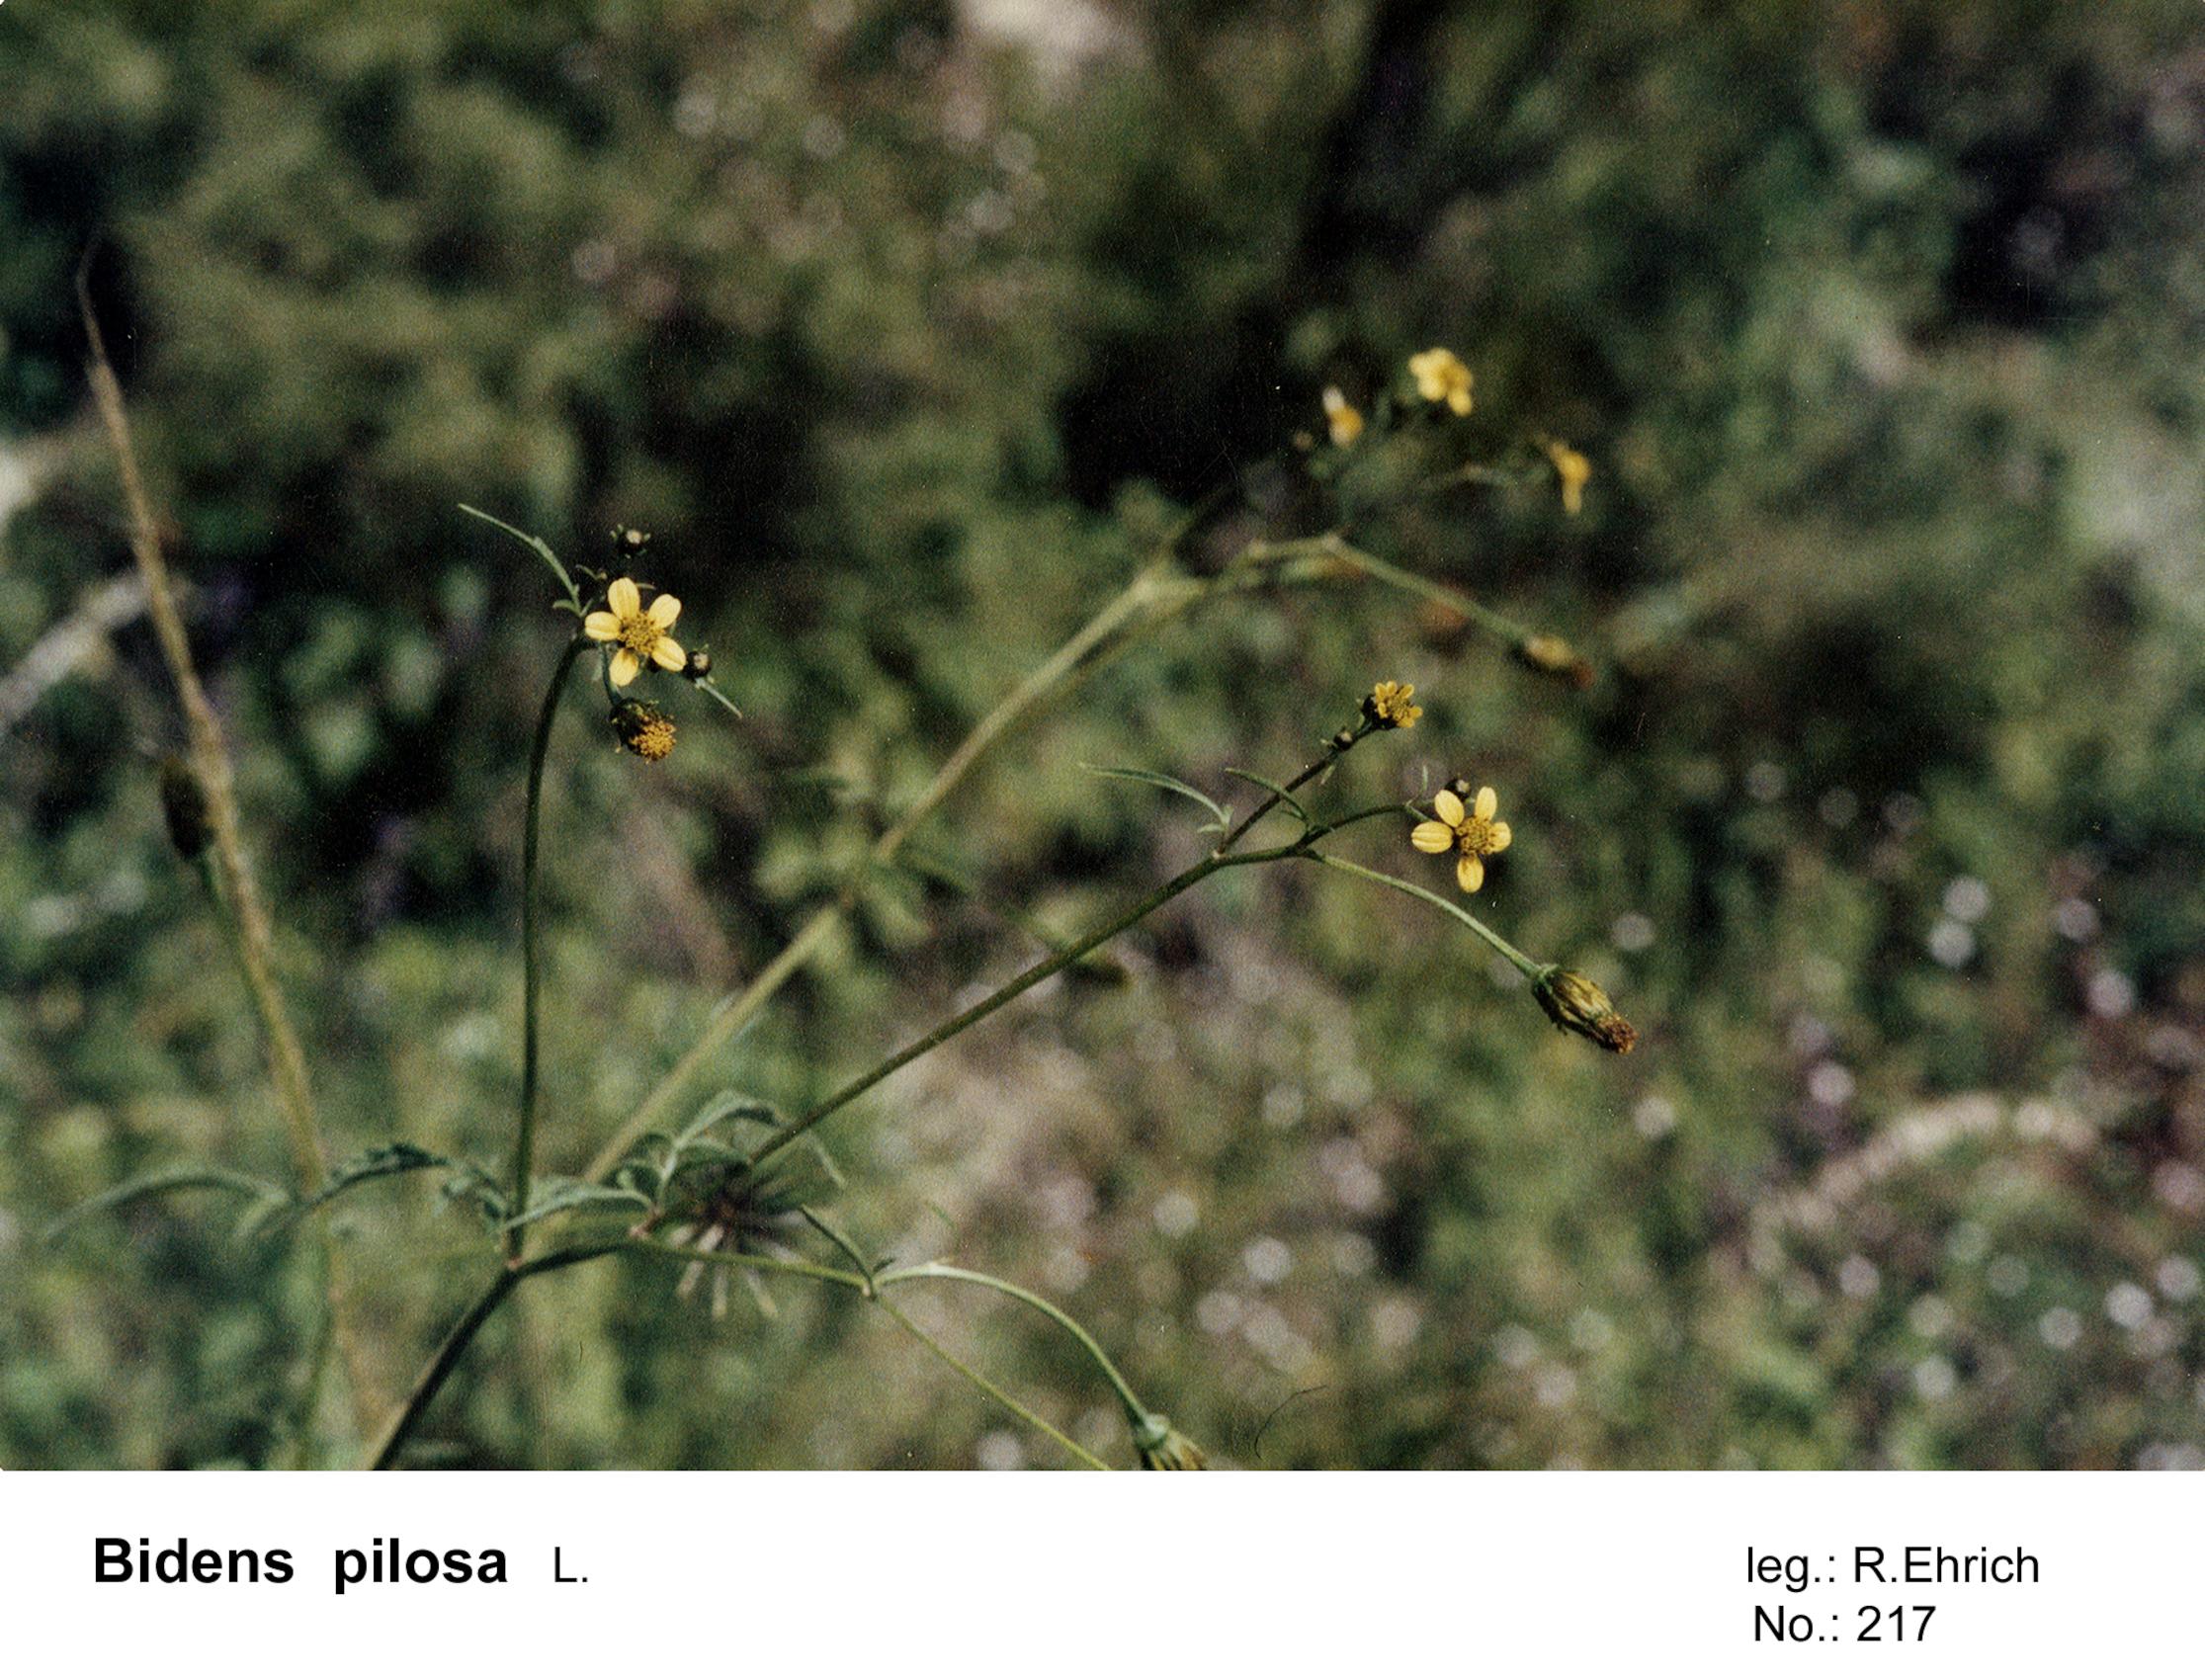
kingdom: Plantae
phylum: Tracheophyta
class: Magnoliopsida
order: Asterales
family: Asteraceae
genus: Bidens
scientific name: Bidens pilosa
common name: Black-jack
